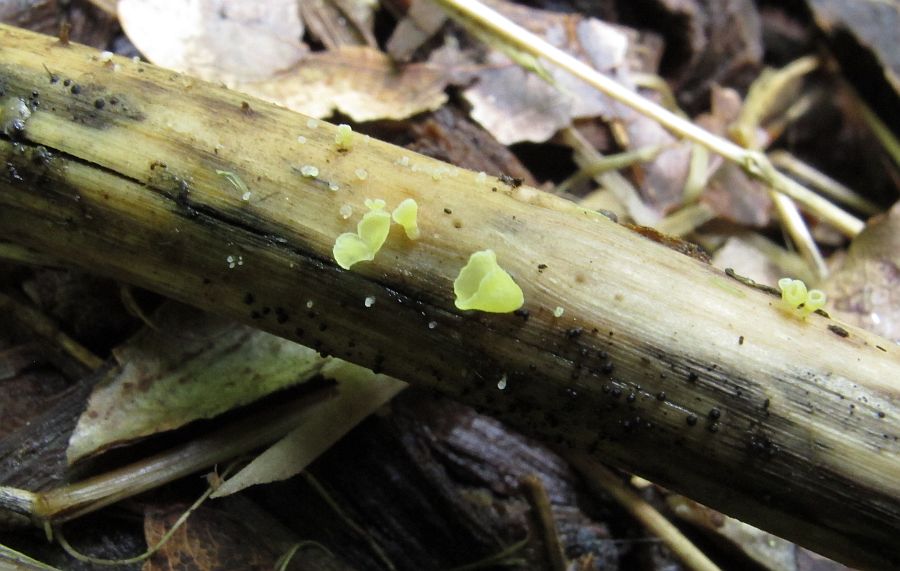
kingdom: Fungi
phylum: Basidiomycota
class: Agaricomycetes
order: Agaricales
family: Marasmiaceae
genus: Calyptella
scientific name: Calyptella campanula
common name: gul nældehue
